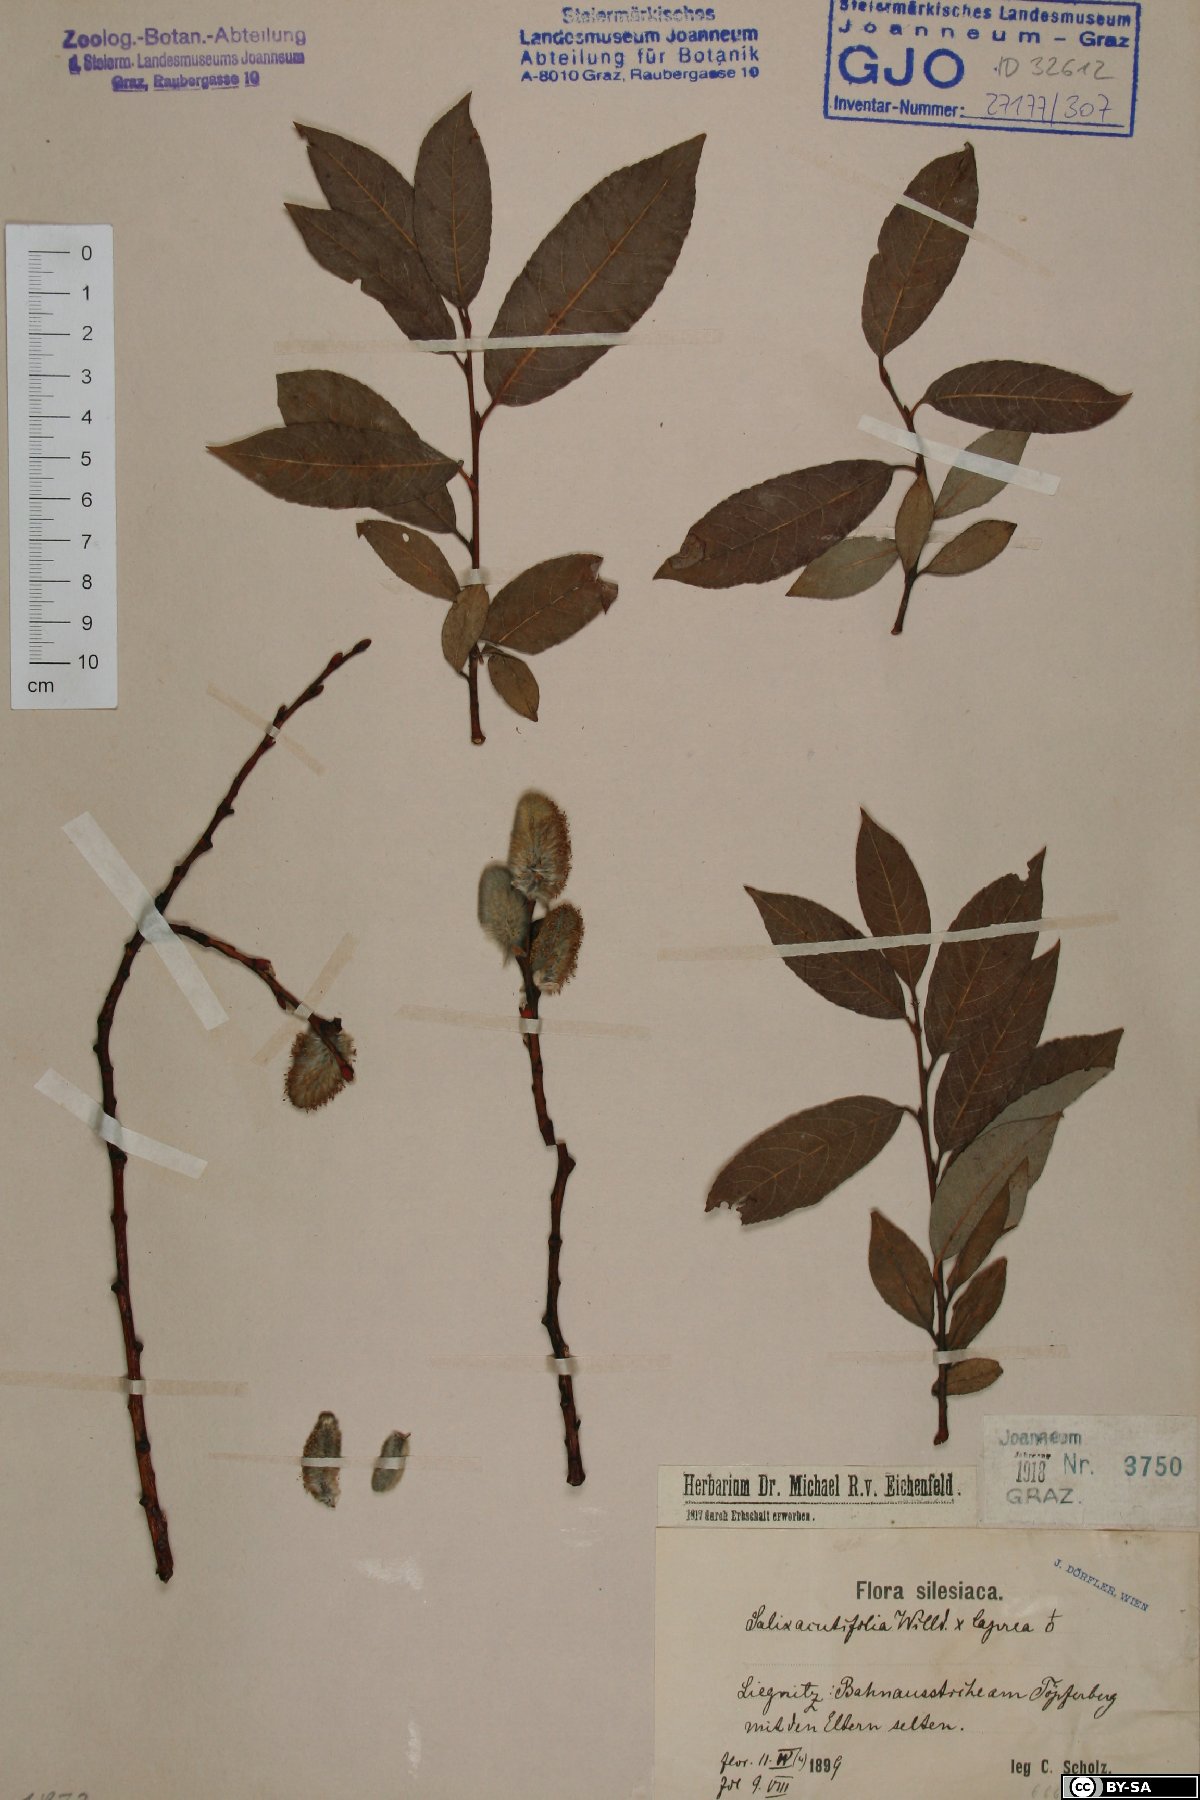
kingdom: Plantae
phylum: Tracheophyta
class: Magnoliopsida
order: Malpighiales
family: Salicaceae
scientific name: Salicaceae
